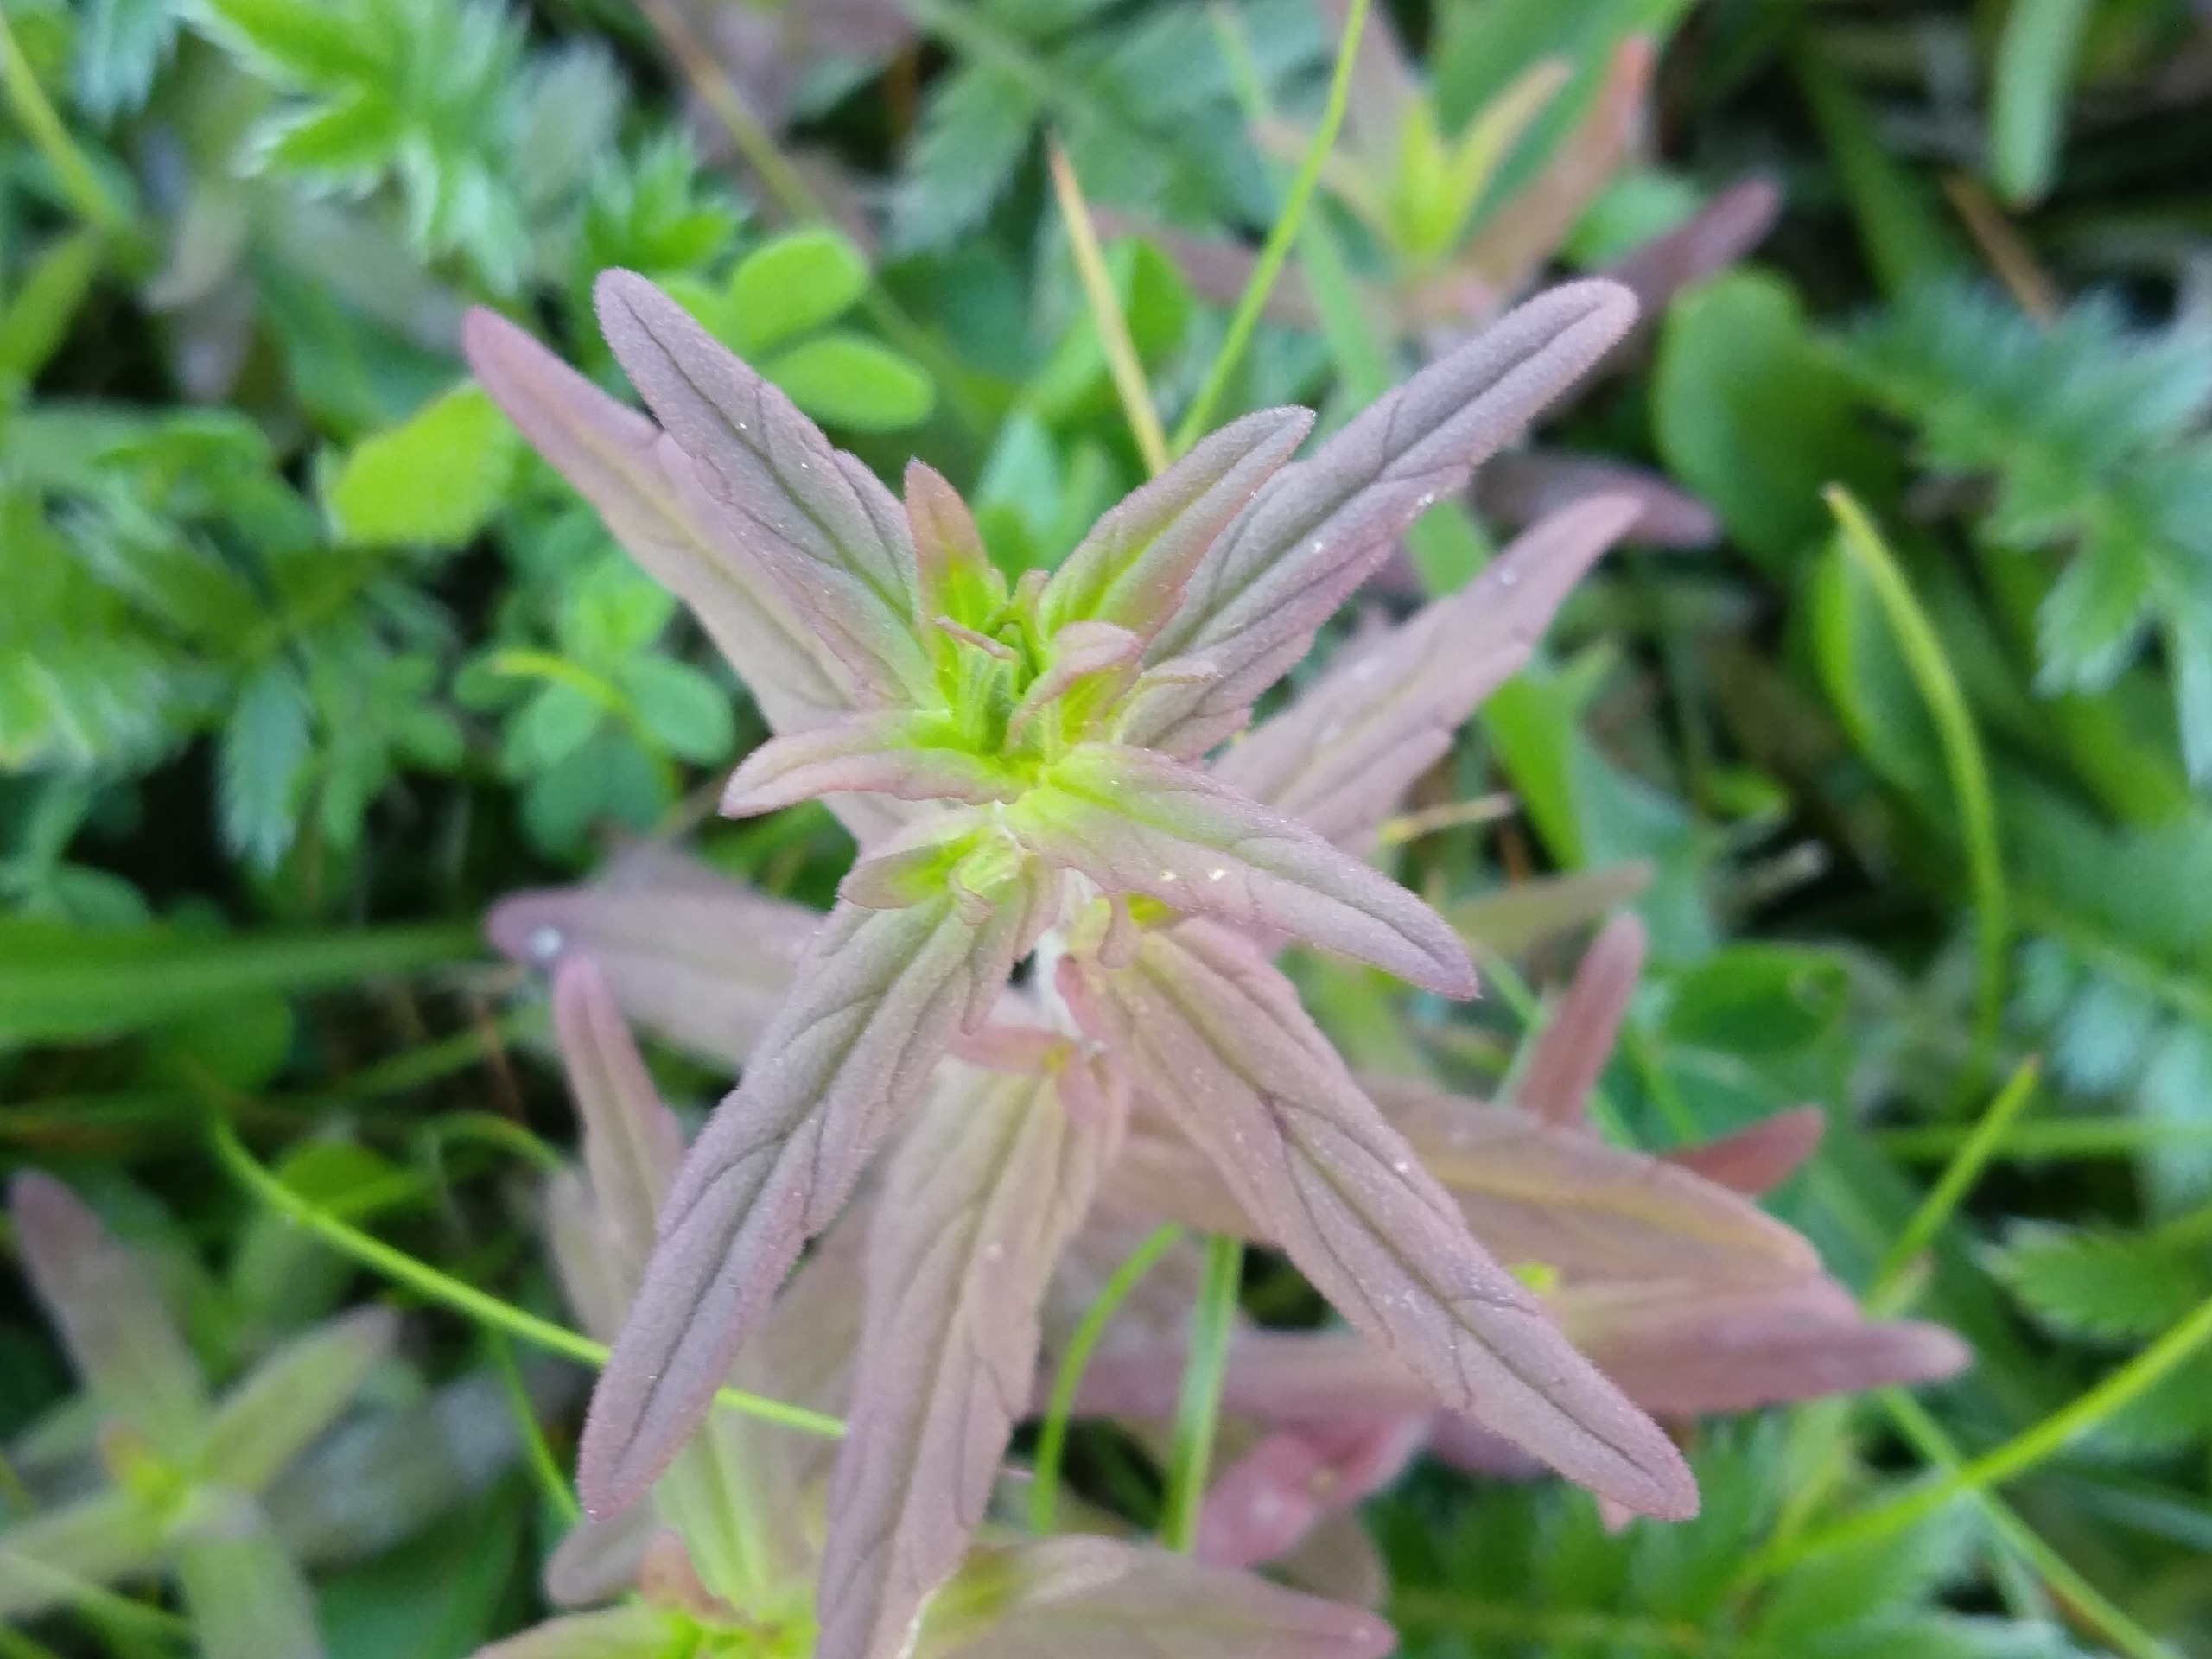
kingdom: Plantae
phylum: Tracheophyta
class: Magnoliopsida
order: Lamiales
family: Orobanchaceae
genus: Odontites
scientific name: Odontites litoralis
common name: Strand-rødtop
